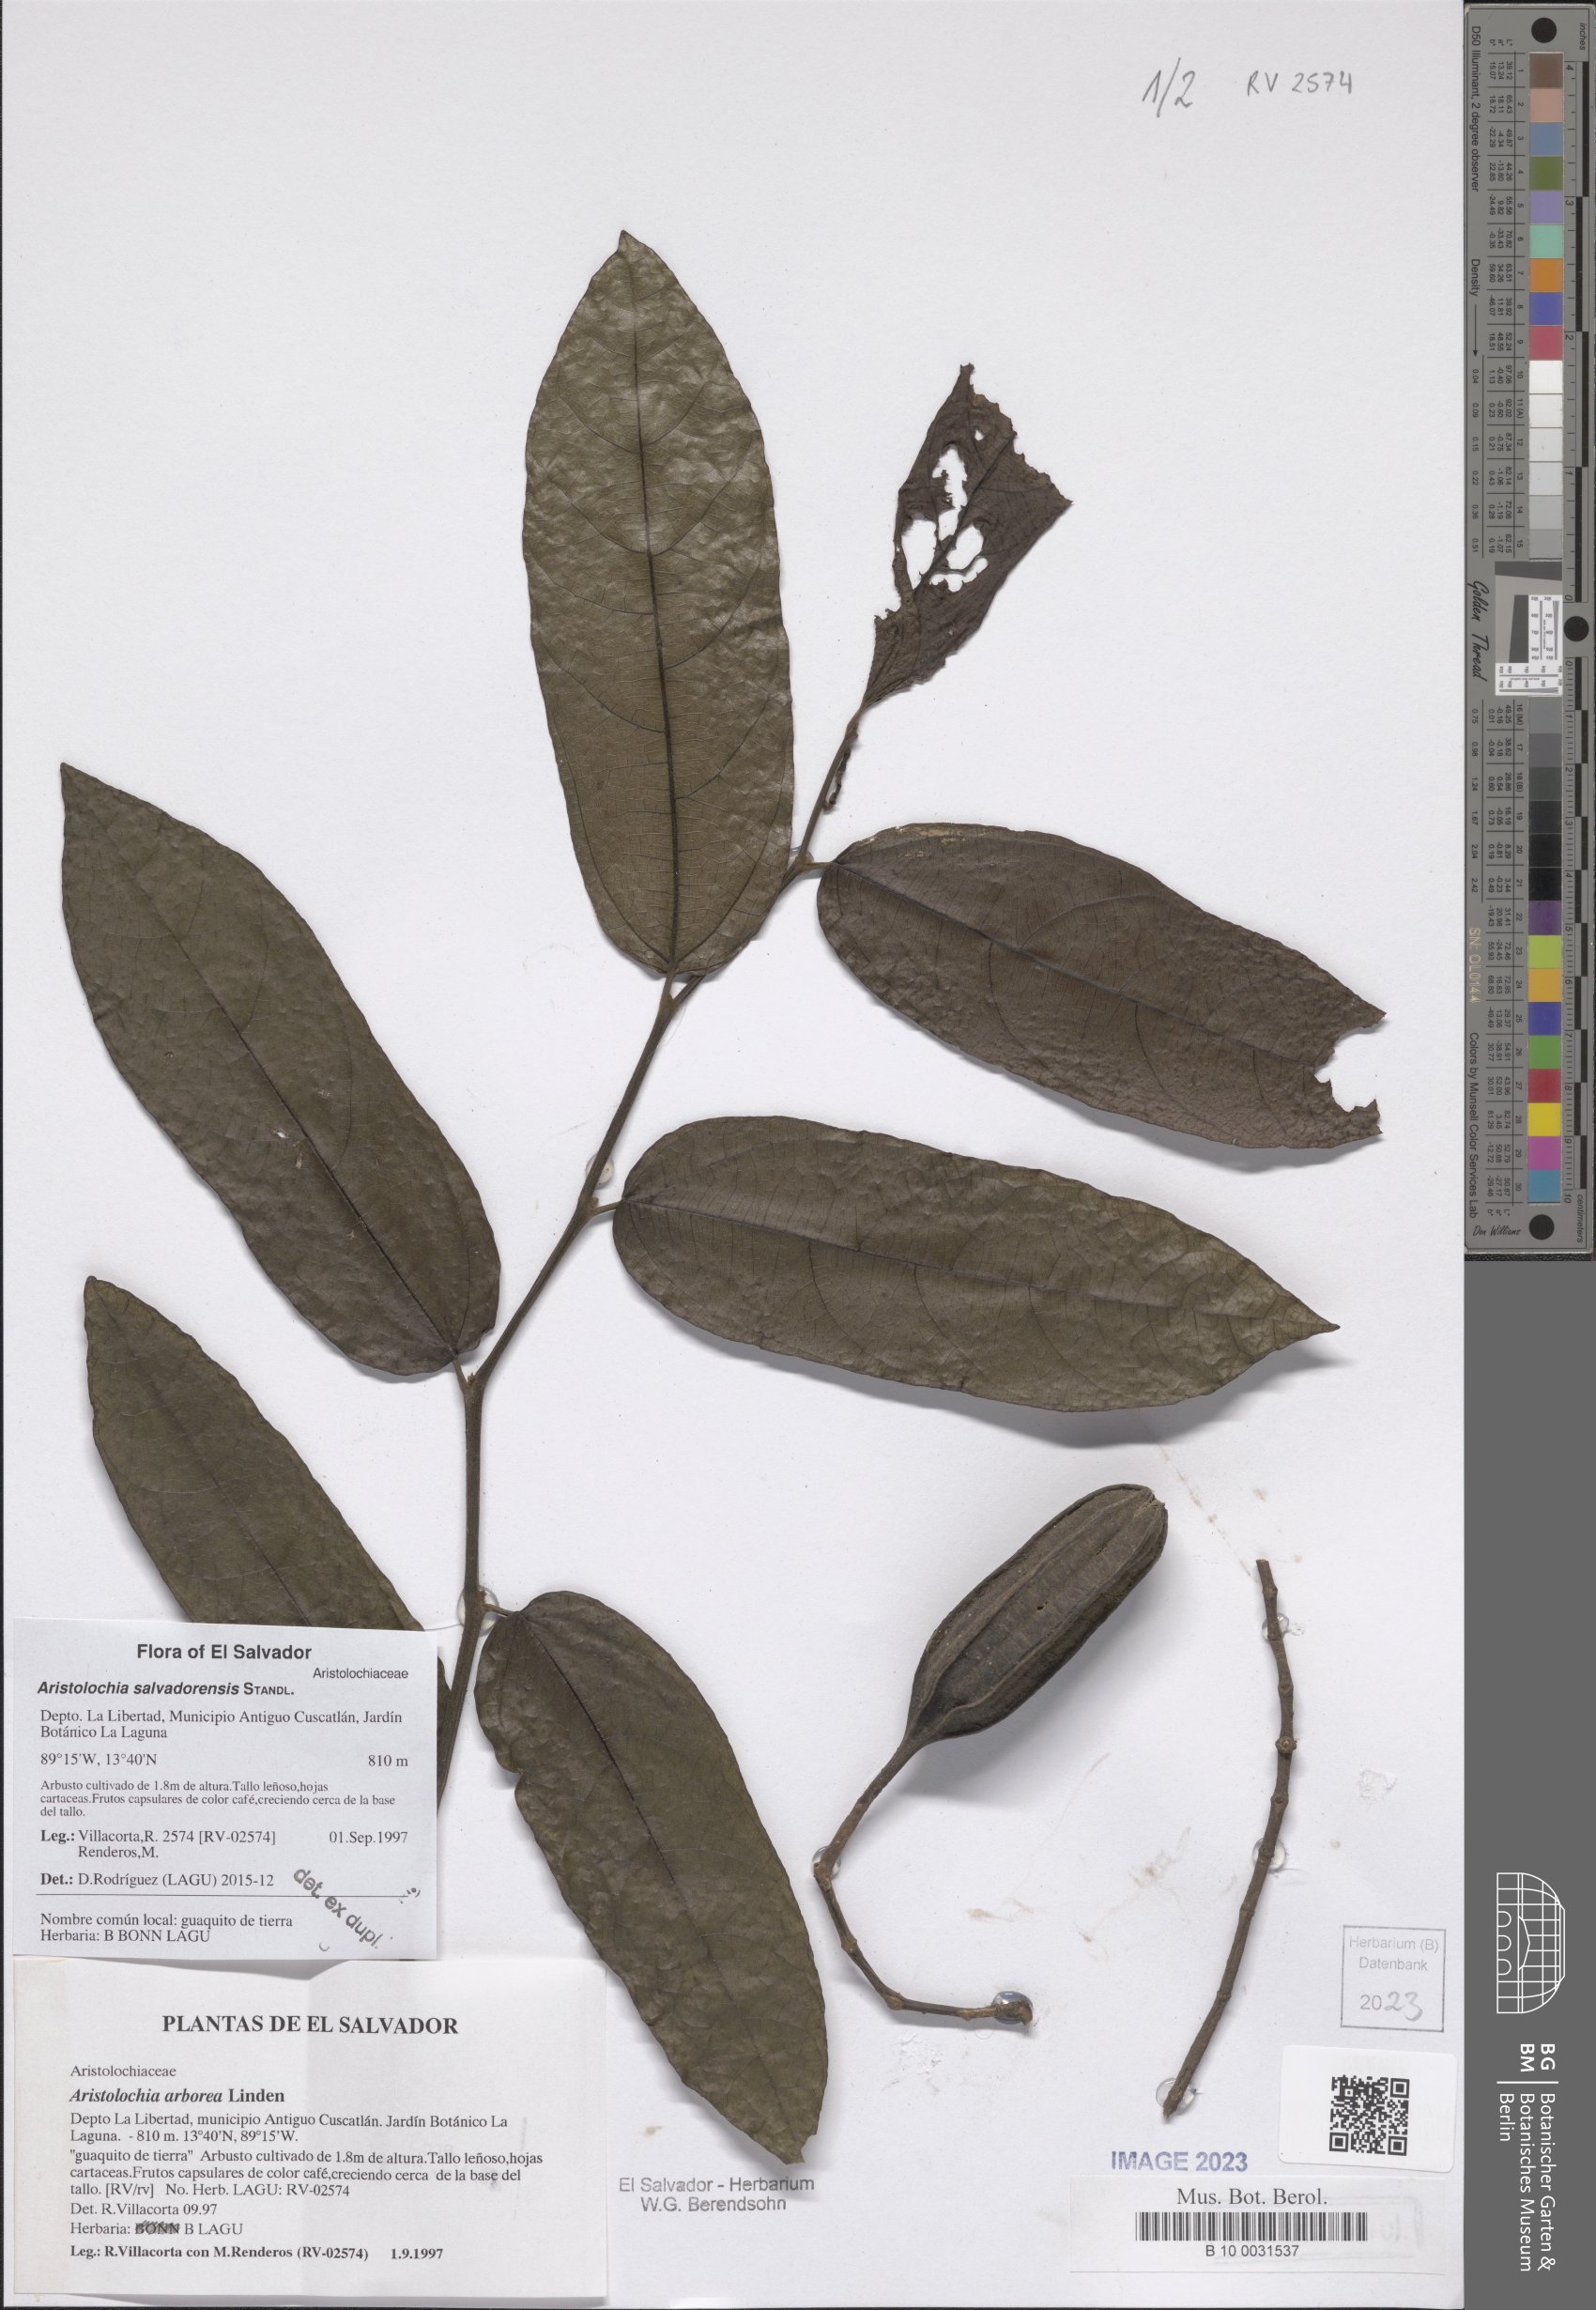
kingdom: Plantae
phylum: Tracheophyta
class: Magnoliopsida
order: Piperales
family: Aristolochiaceae
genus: Isotrema
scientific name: Isotrema arborea
